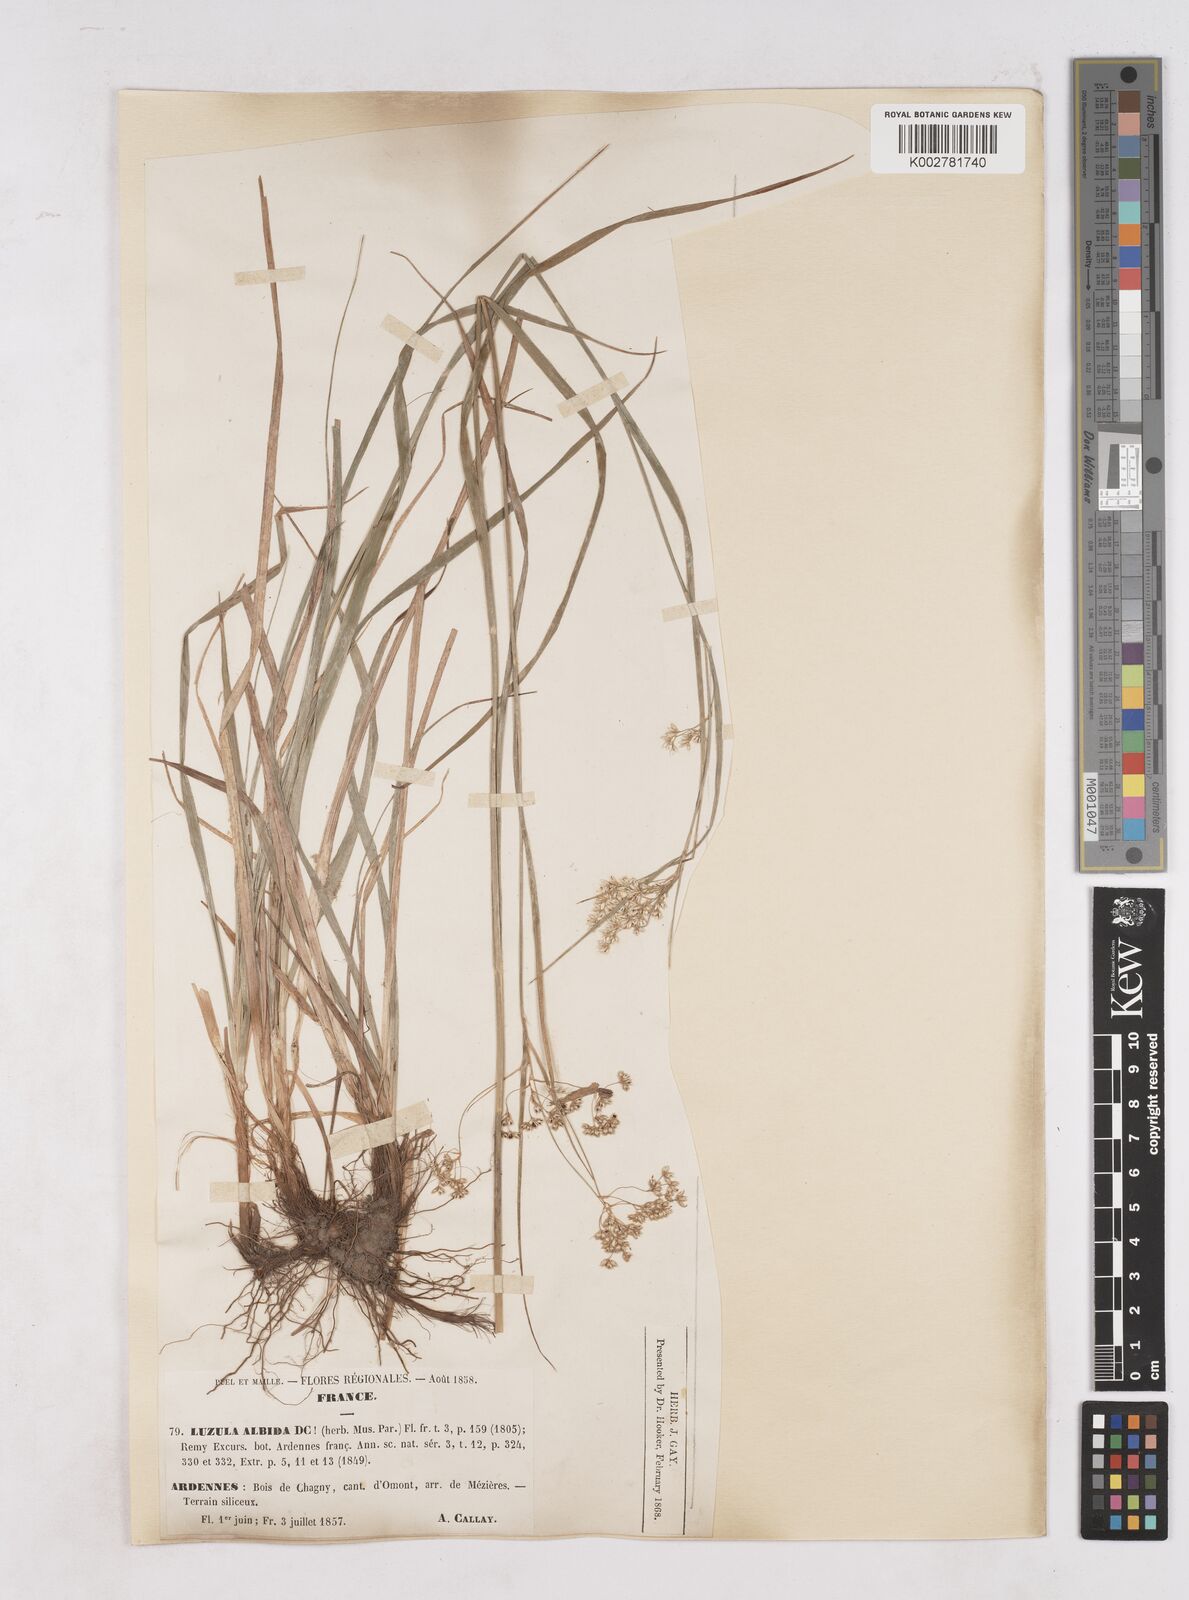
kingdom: Plantae
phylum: Tracheophyta
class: Liliopsida
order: Poales
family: Juncaceae
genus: Luzula
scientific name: Luzula luzuloides
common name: White wood-rush
